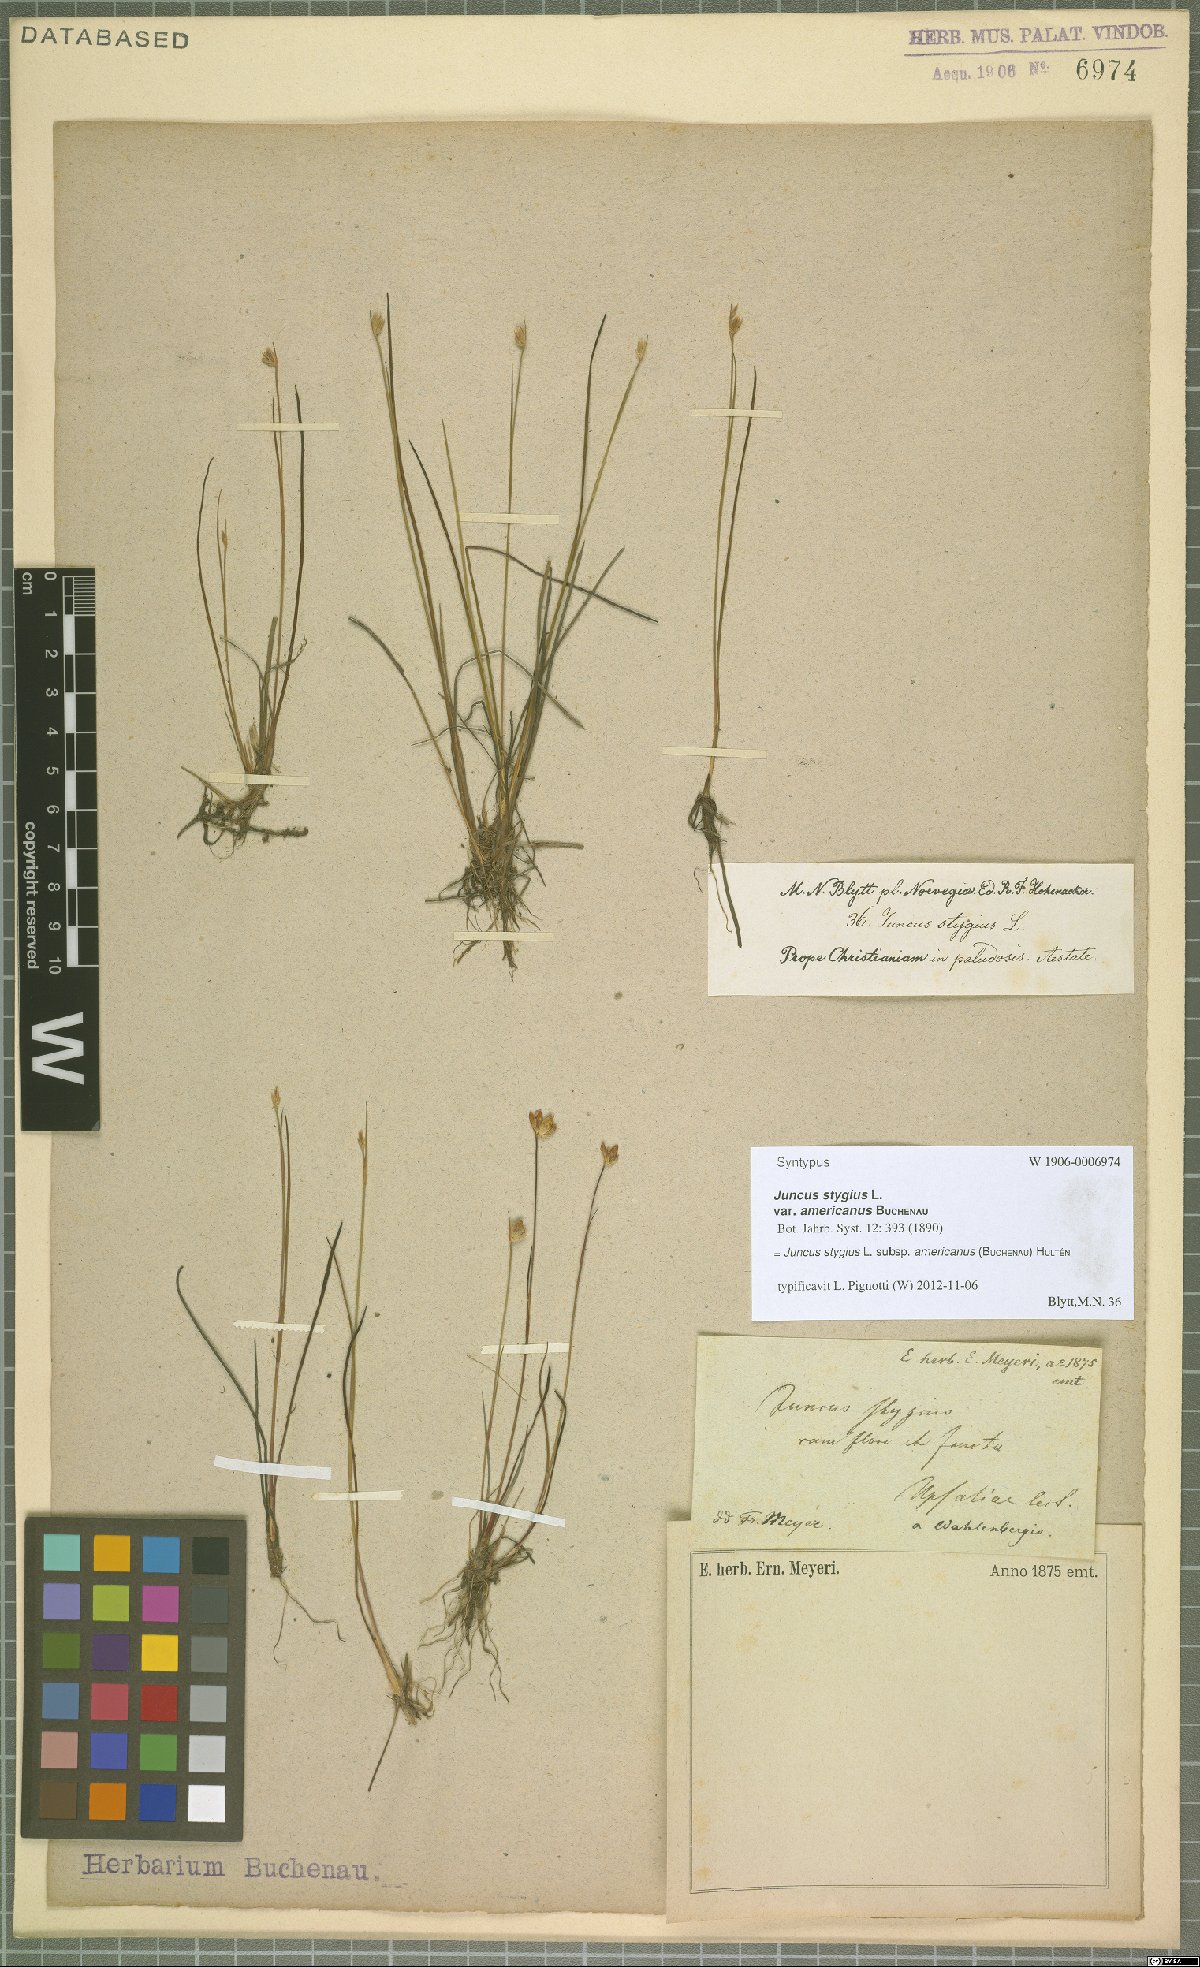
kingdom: Plantae
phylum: Tracheophyta
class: Liliopsida
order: Poales
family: Juncaceae
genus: Juncus
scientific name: Juncus stygius
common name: Bog rush
